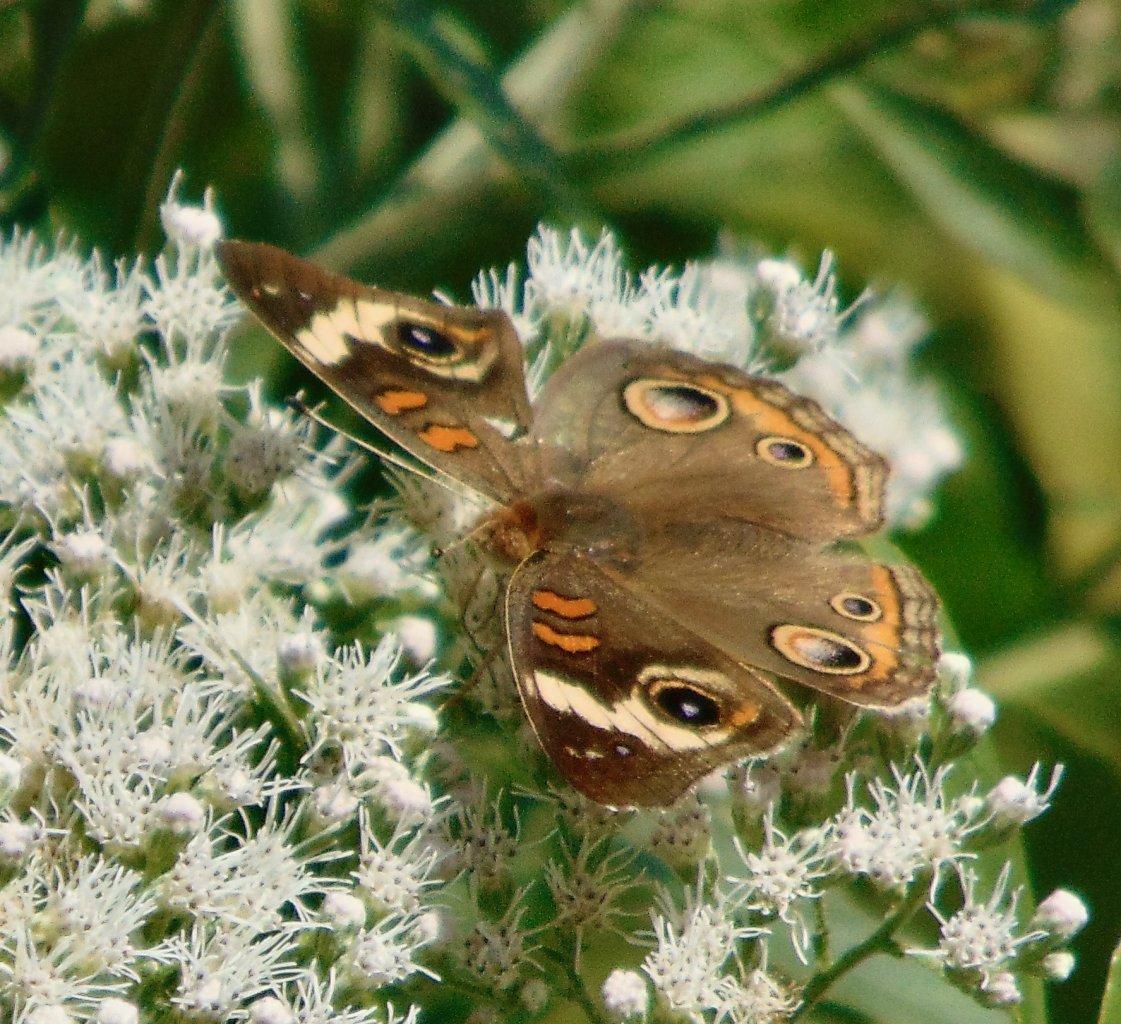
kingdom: Animalia
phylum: Arthropoda
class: Insecta
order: Lepidoptera
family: Nymphalidae
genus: Junonia
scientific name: Junonia coenia
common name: Common Buckeye
